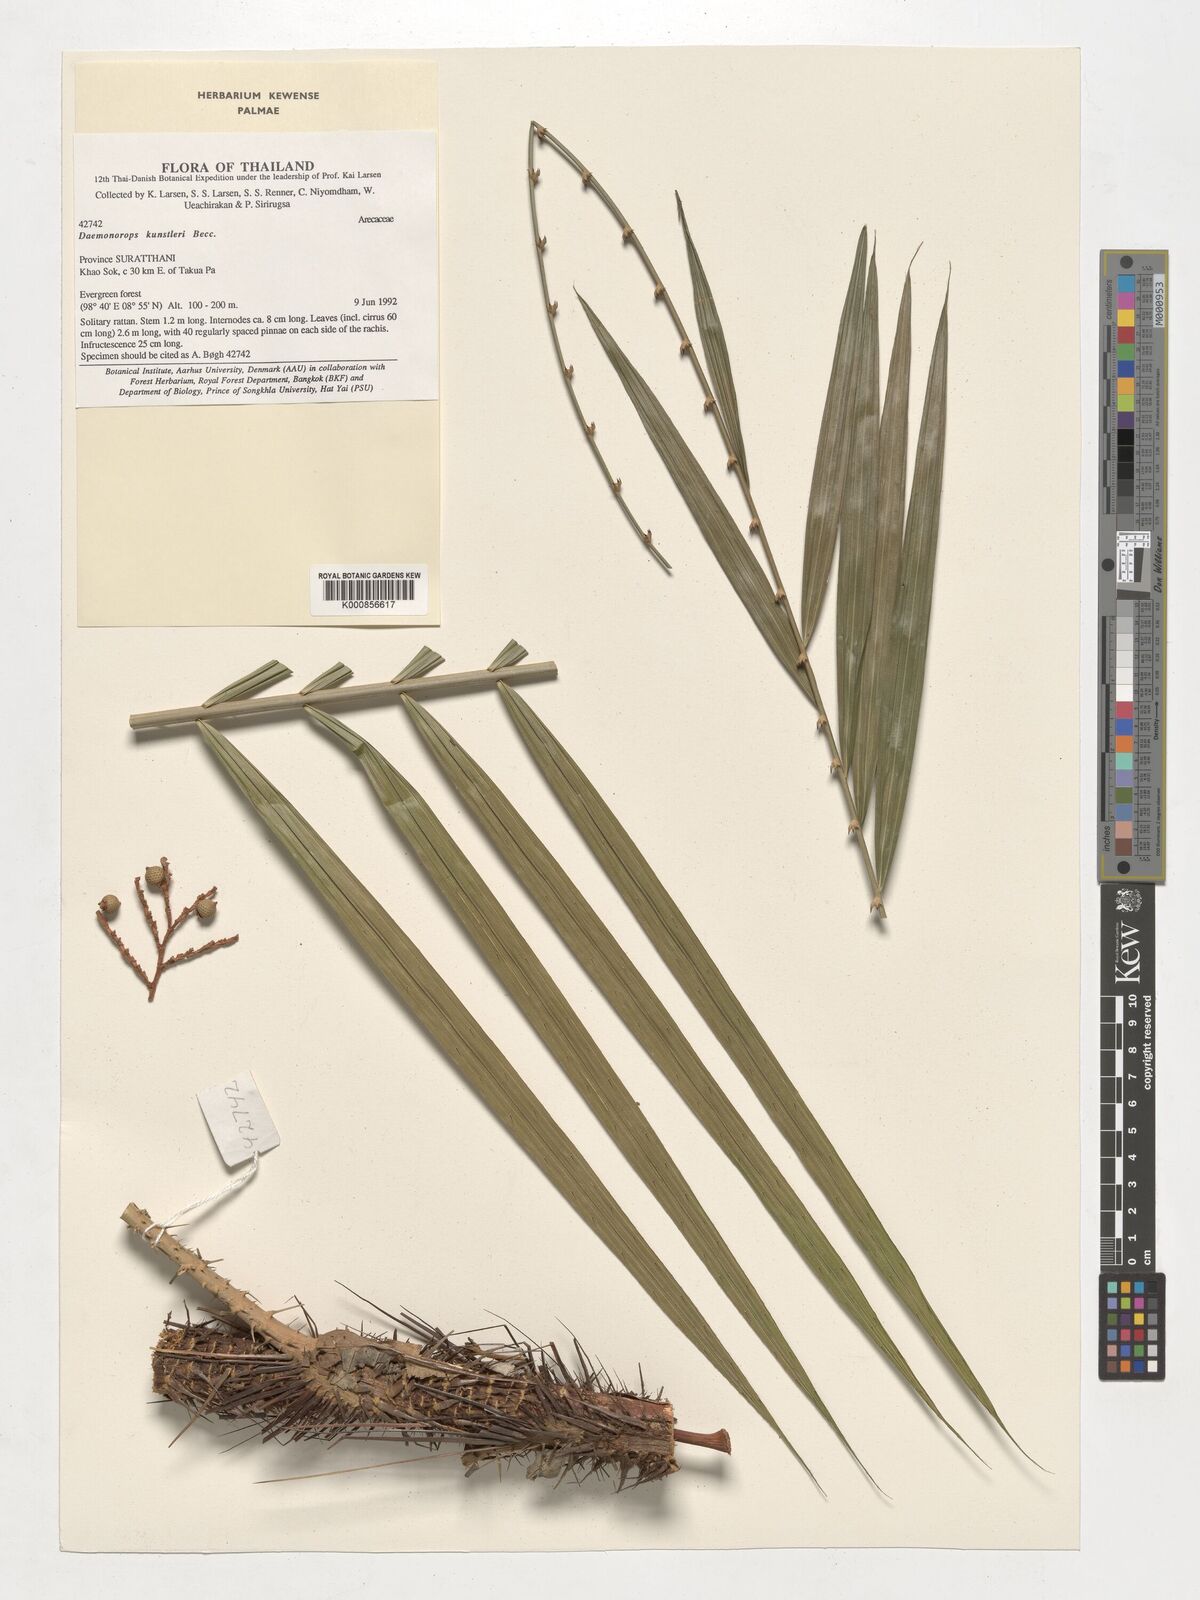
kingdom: Plantae
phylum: Tracheophyta
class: Liliopsida
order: Arecales
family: Arecaceae
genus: Calamus
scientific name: Calamus kunstleri
